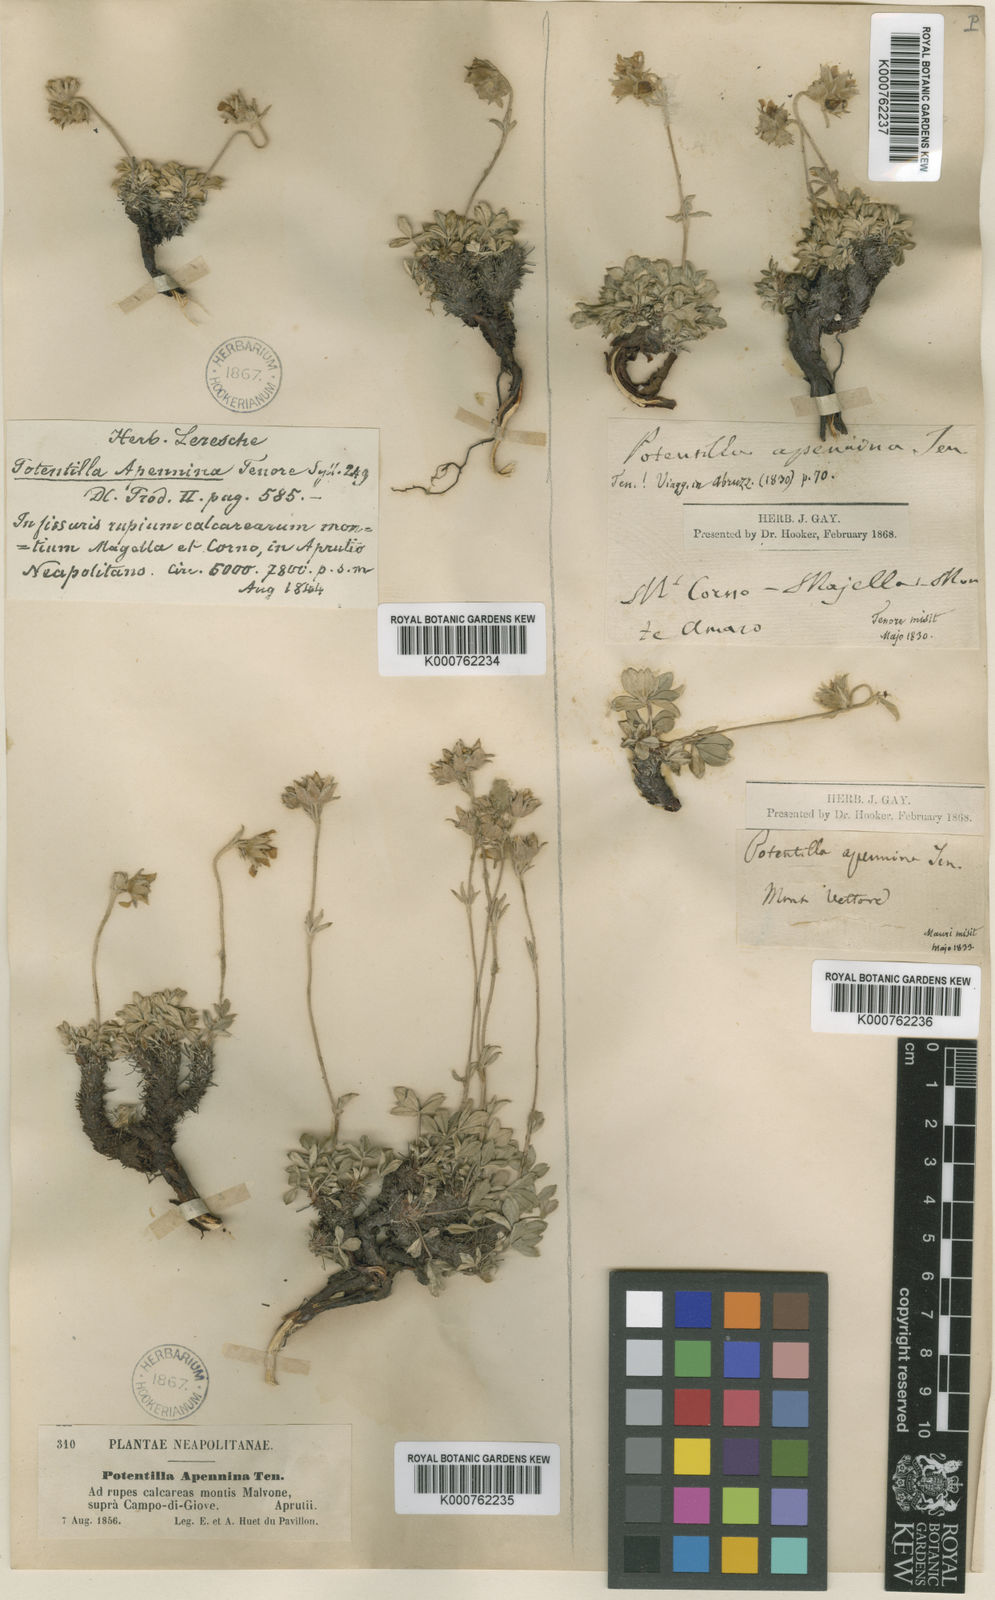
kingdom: Plantae
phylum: Tracheophyta
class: Magnoliopsida
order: Rosales
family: Rosaceae
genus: Potentilla
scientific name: Potentilla apennina
